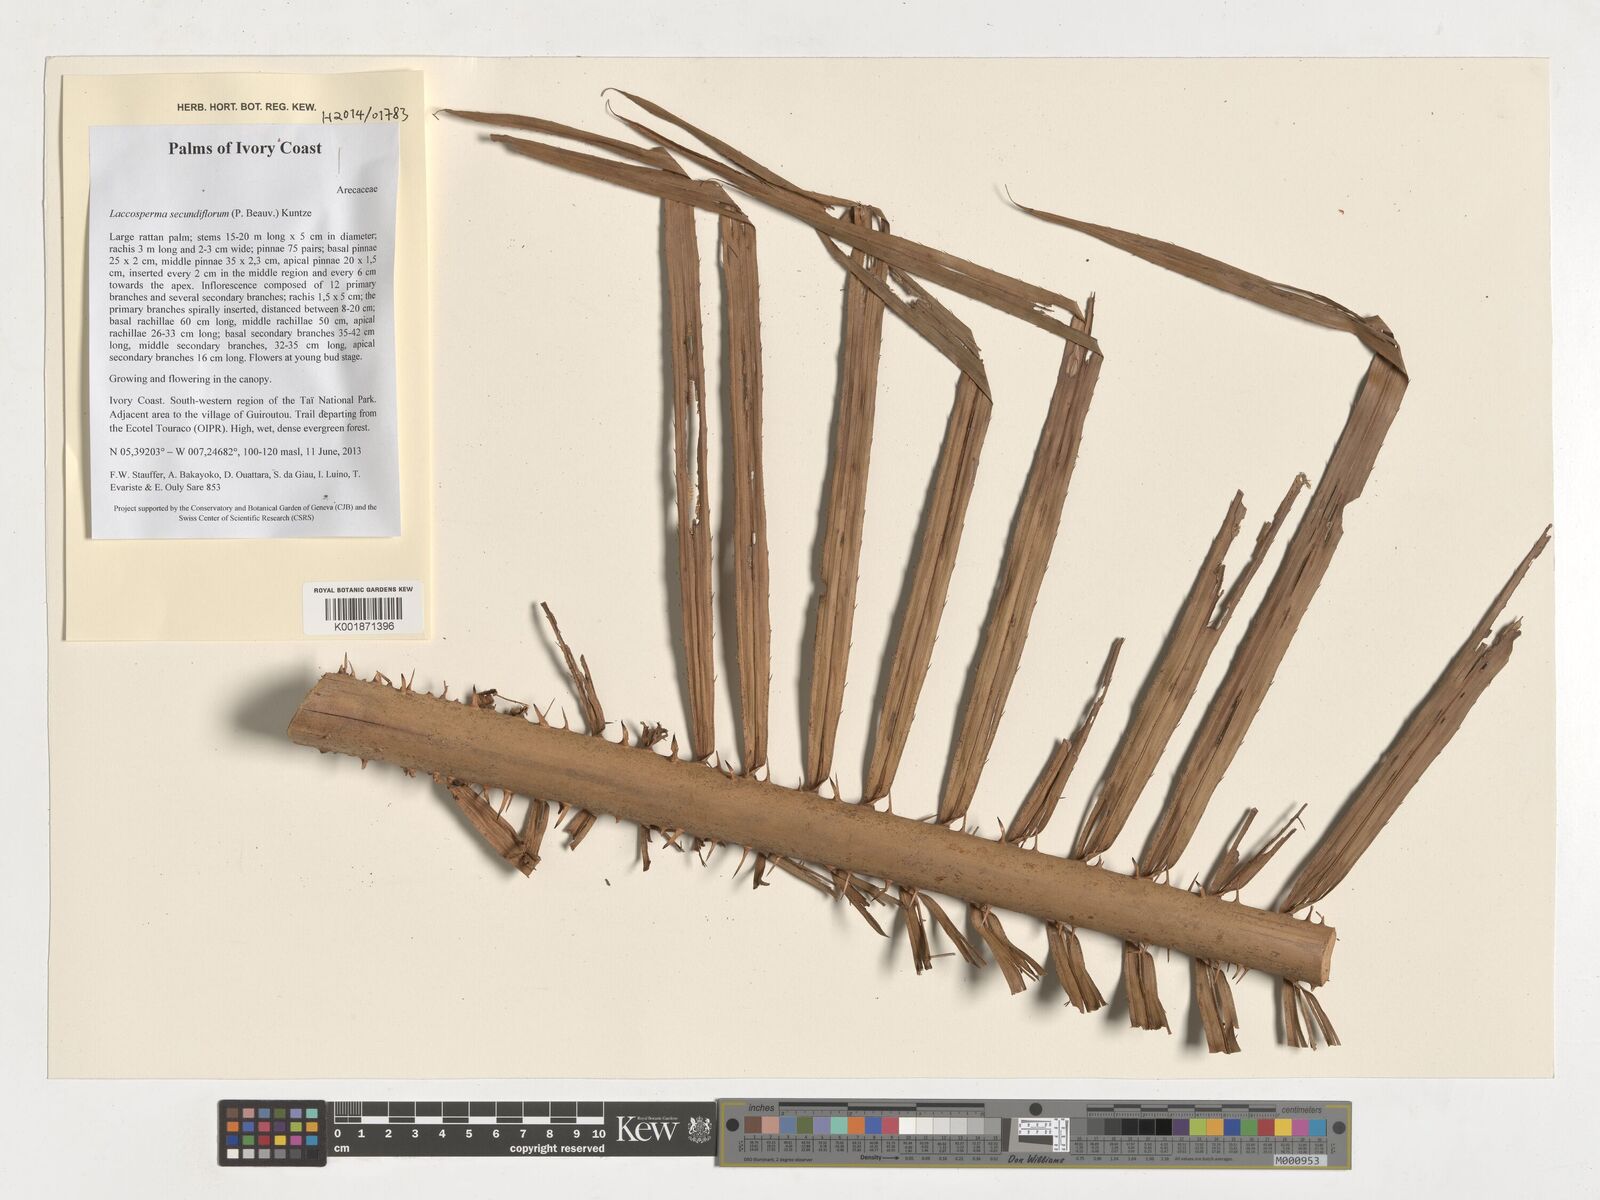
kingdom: Plantae
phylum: Tracheophyta
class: Liliopsida
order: Arecales
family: Arecaceae
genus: Laccosperma
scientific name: Laccosperma secundiflorum
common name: Rattan
